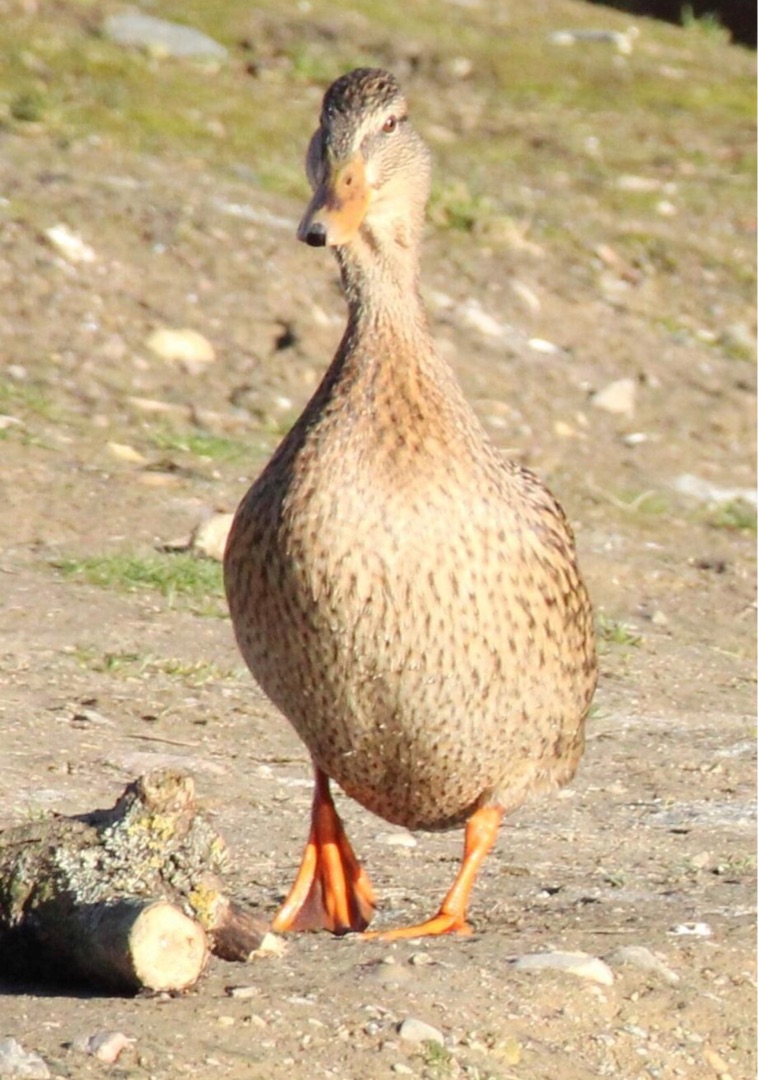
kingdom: Animalia
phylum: Chordata
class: Aves
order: Anseriformes
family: Anatidae
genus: Anas
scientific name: Anas platyrhynchos
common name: Gråand
